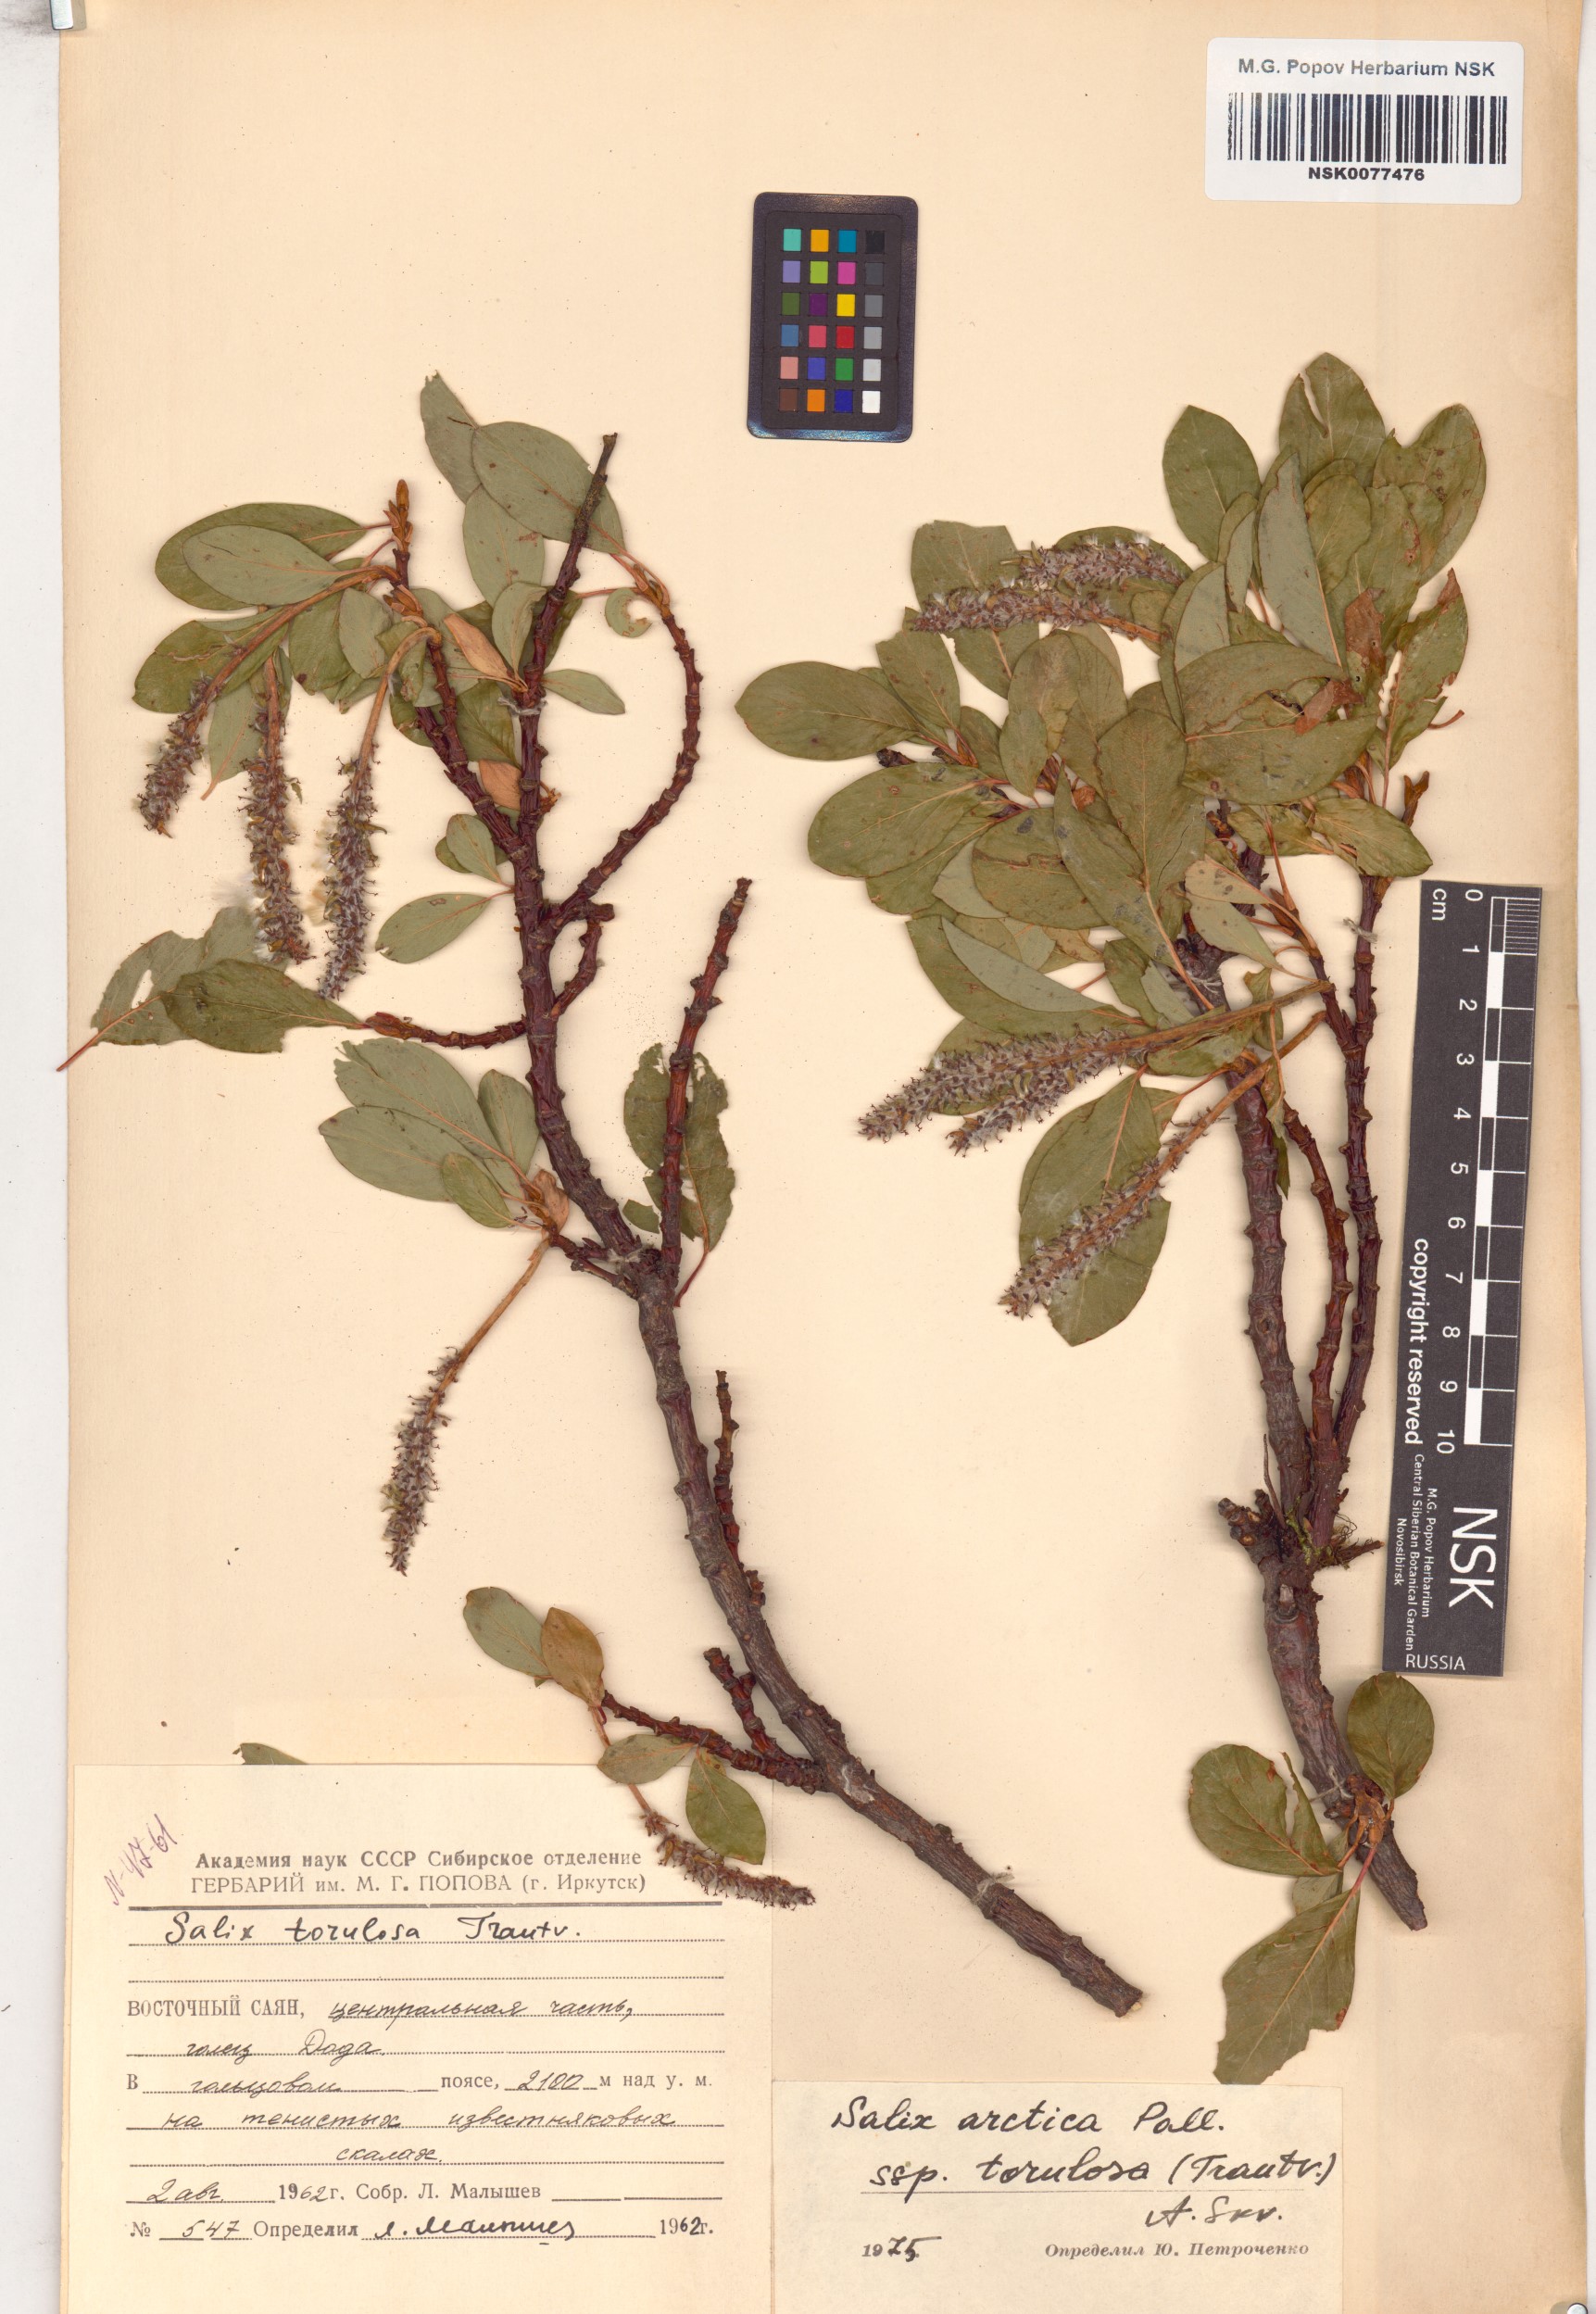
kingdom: Plantae
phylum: Tracheophyta
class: Magnoliopsida
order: Malpighiales
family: Salicaceae
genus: Salix
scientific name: Salix arctica
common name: Arctic willow
